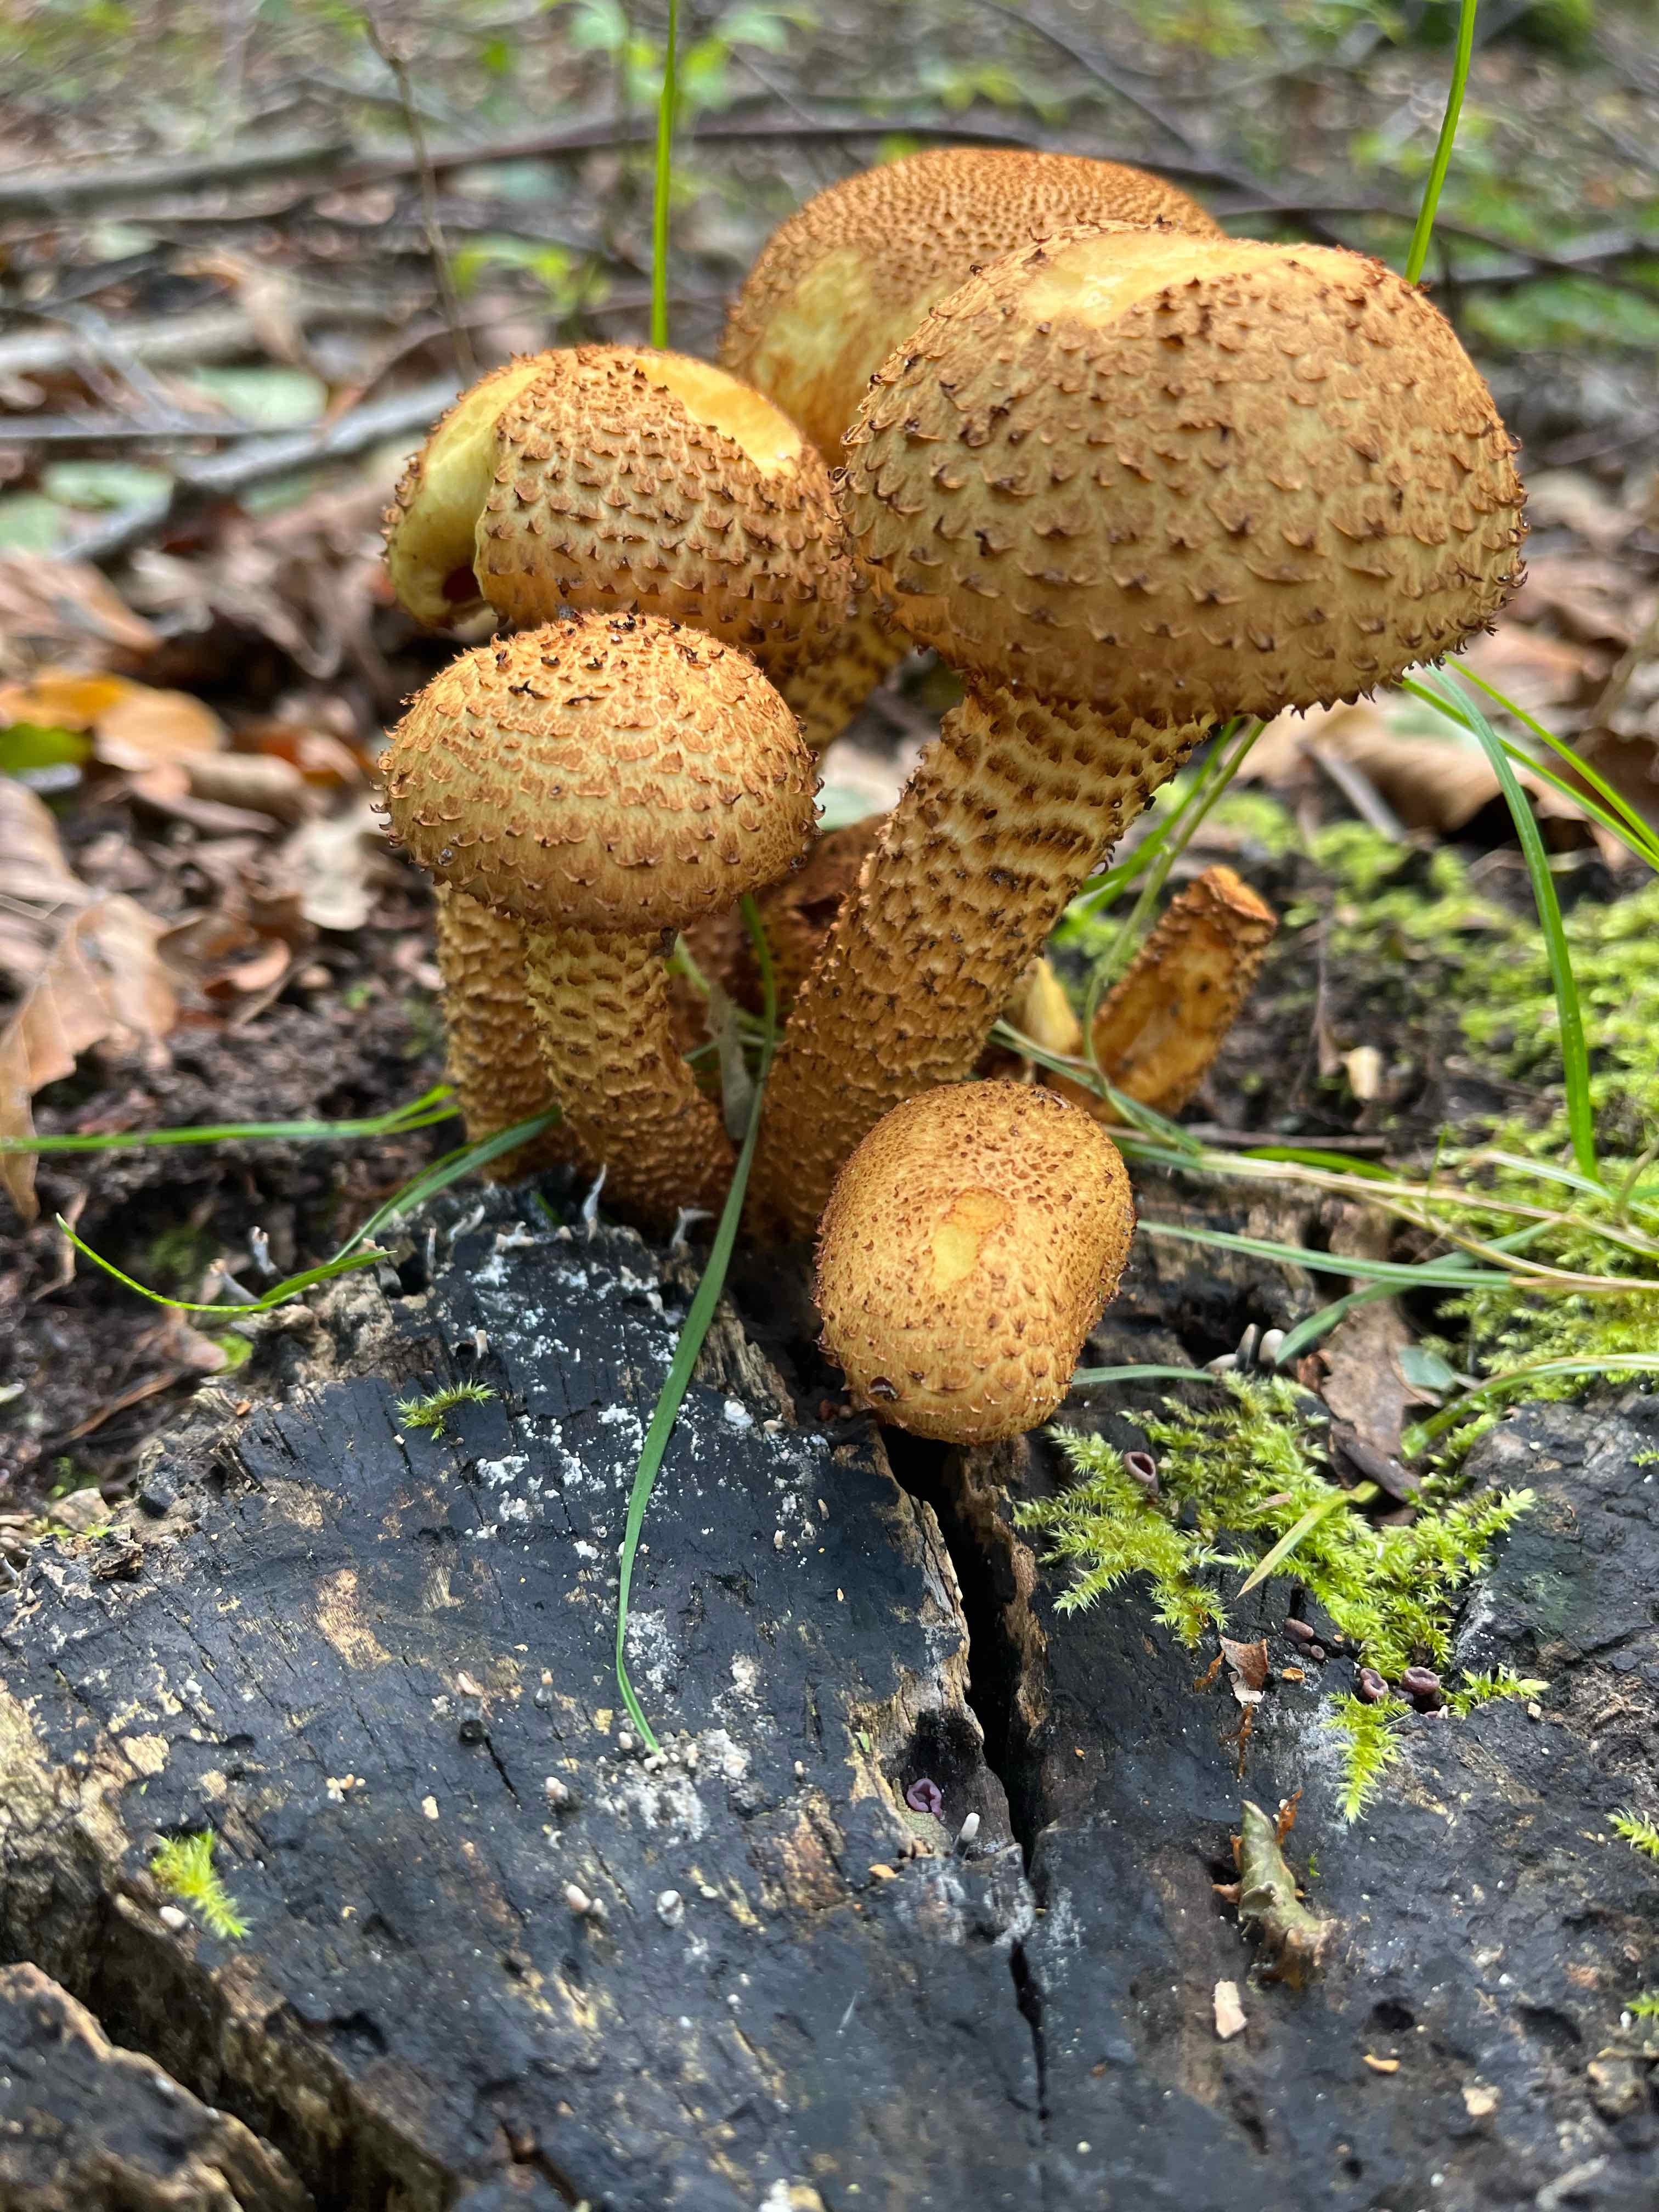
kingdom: Fungi
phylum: Basidiomycota
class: Agaricomycetes
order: Agaricales
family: Strophariaceae
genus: Pholiota
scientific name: Pholiota squarrosa
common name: krumskællet skælhat
